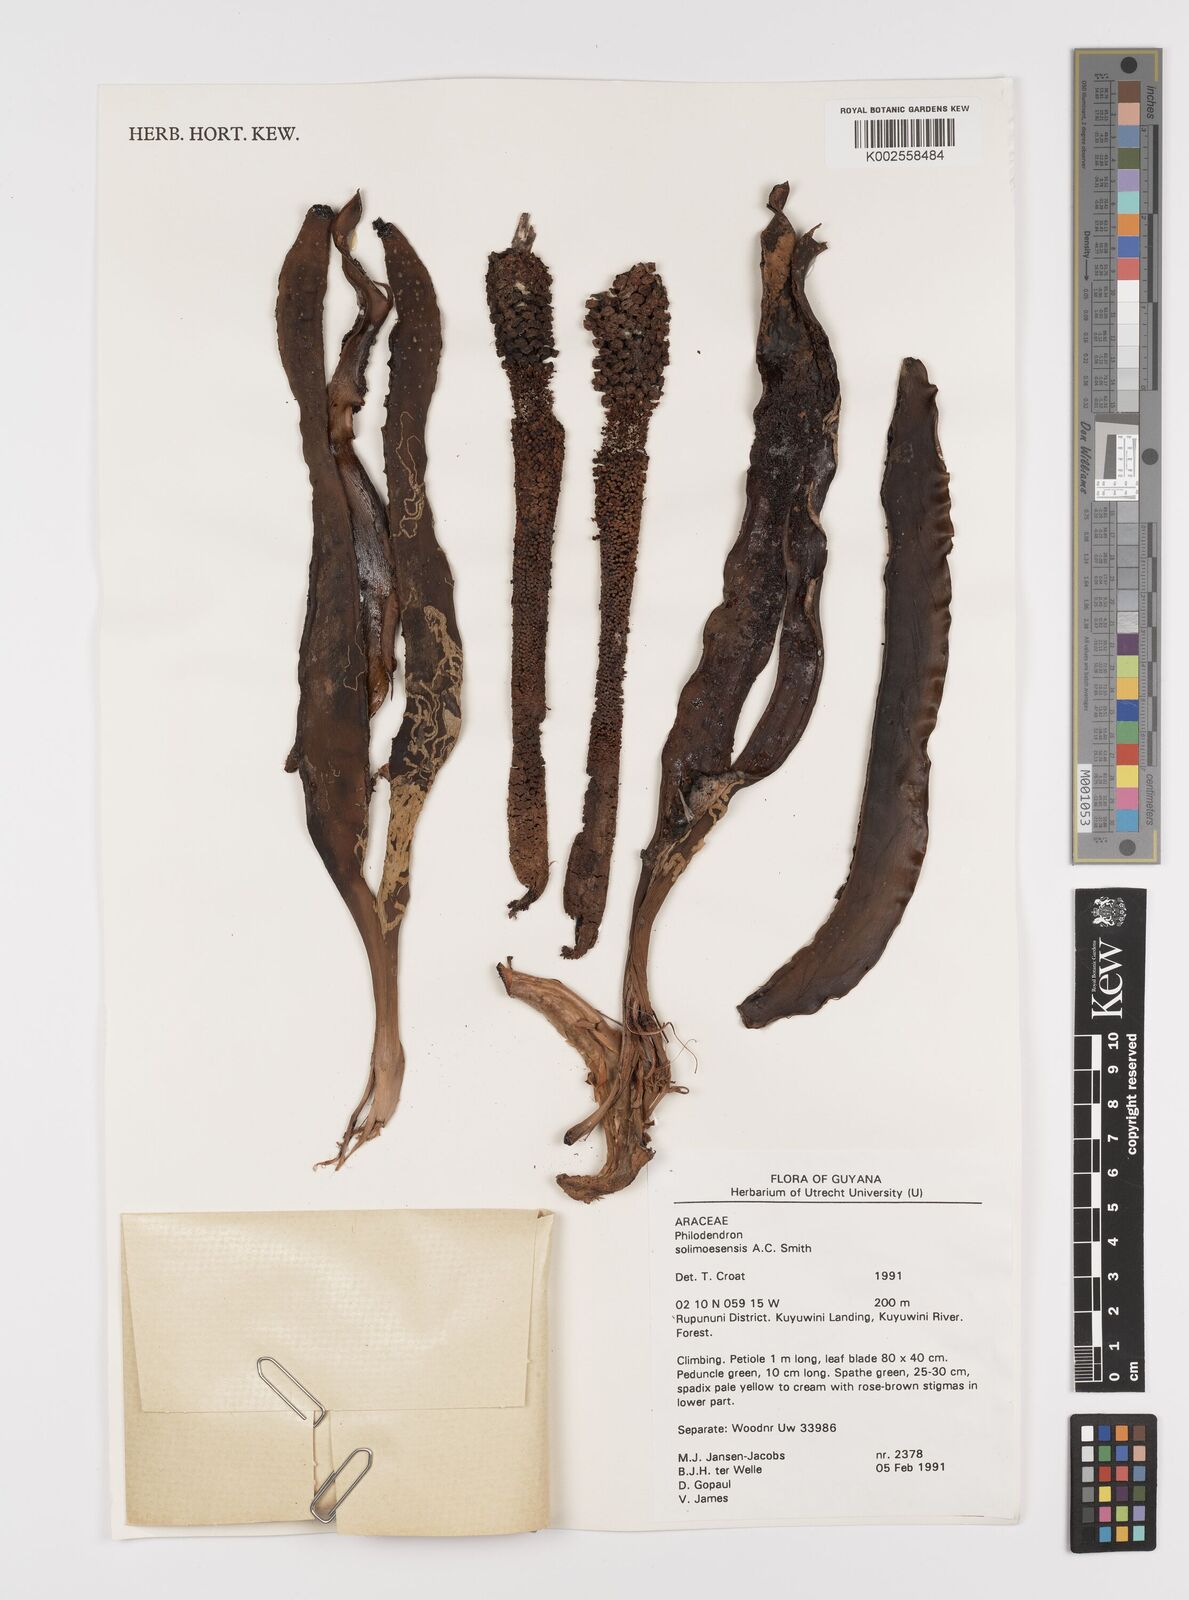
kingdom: Plantae
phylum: Tracheophyta
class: Liliopsida
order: Alismatales
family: Araceae
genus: Thaumatophyllum
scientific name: Thaumatophyllum solimoesense
